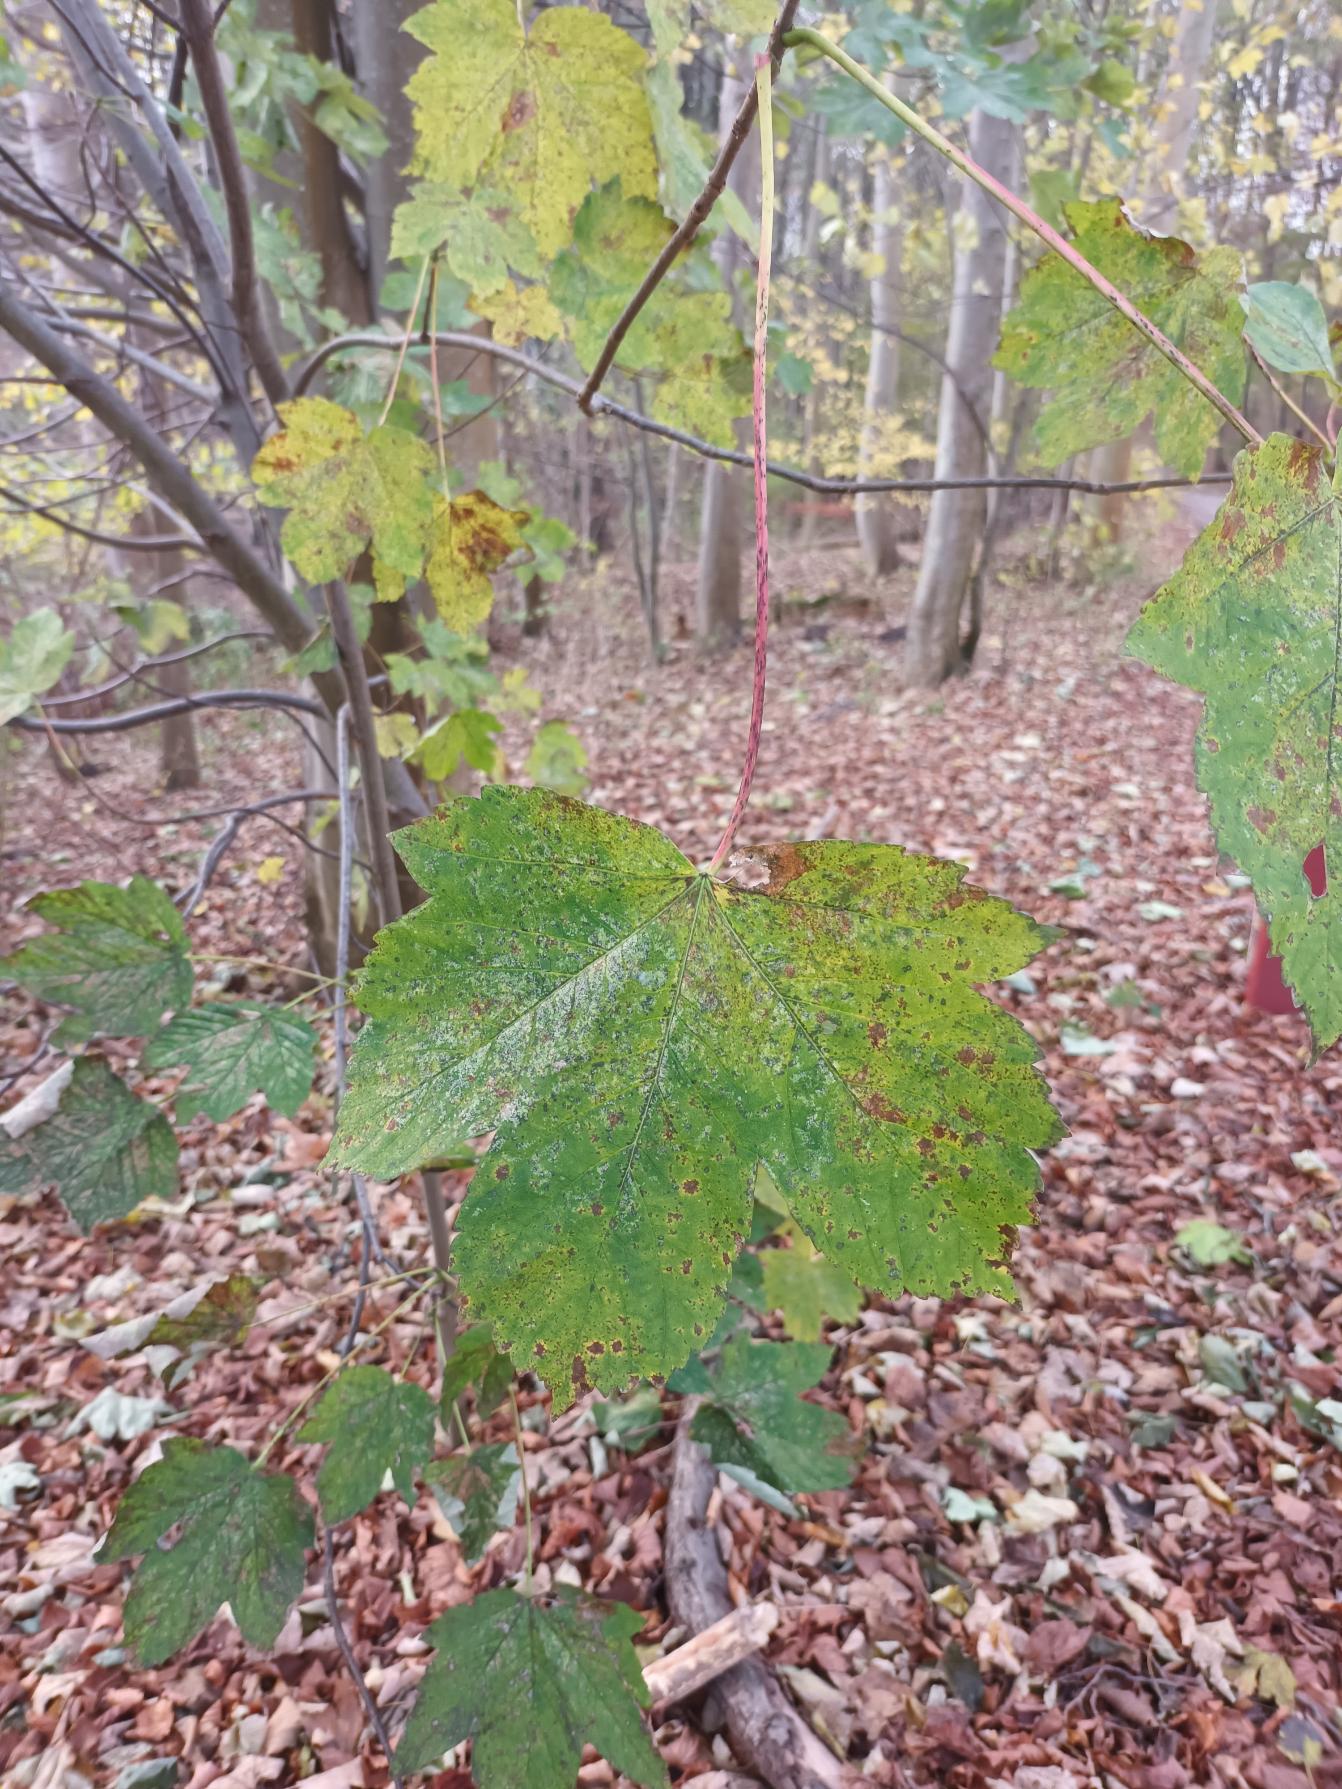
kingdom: Plantae
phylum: Tracheophyta
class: Magnoliopsida
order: Sapindales
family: Sapindaceae
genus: Acer
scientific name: Acer pseudoplatanus
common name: Ahorn
